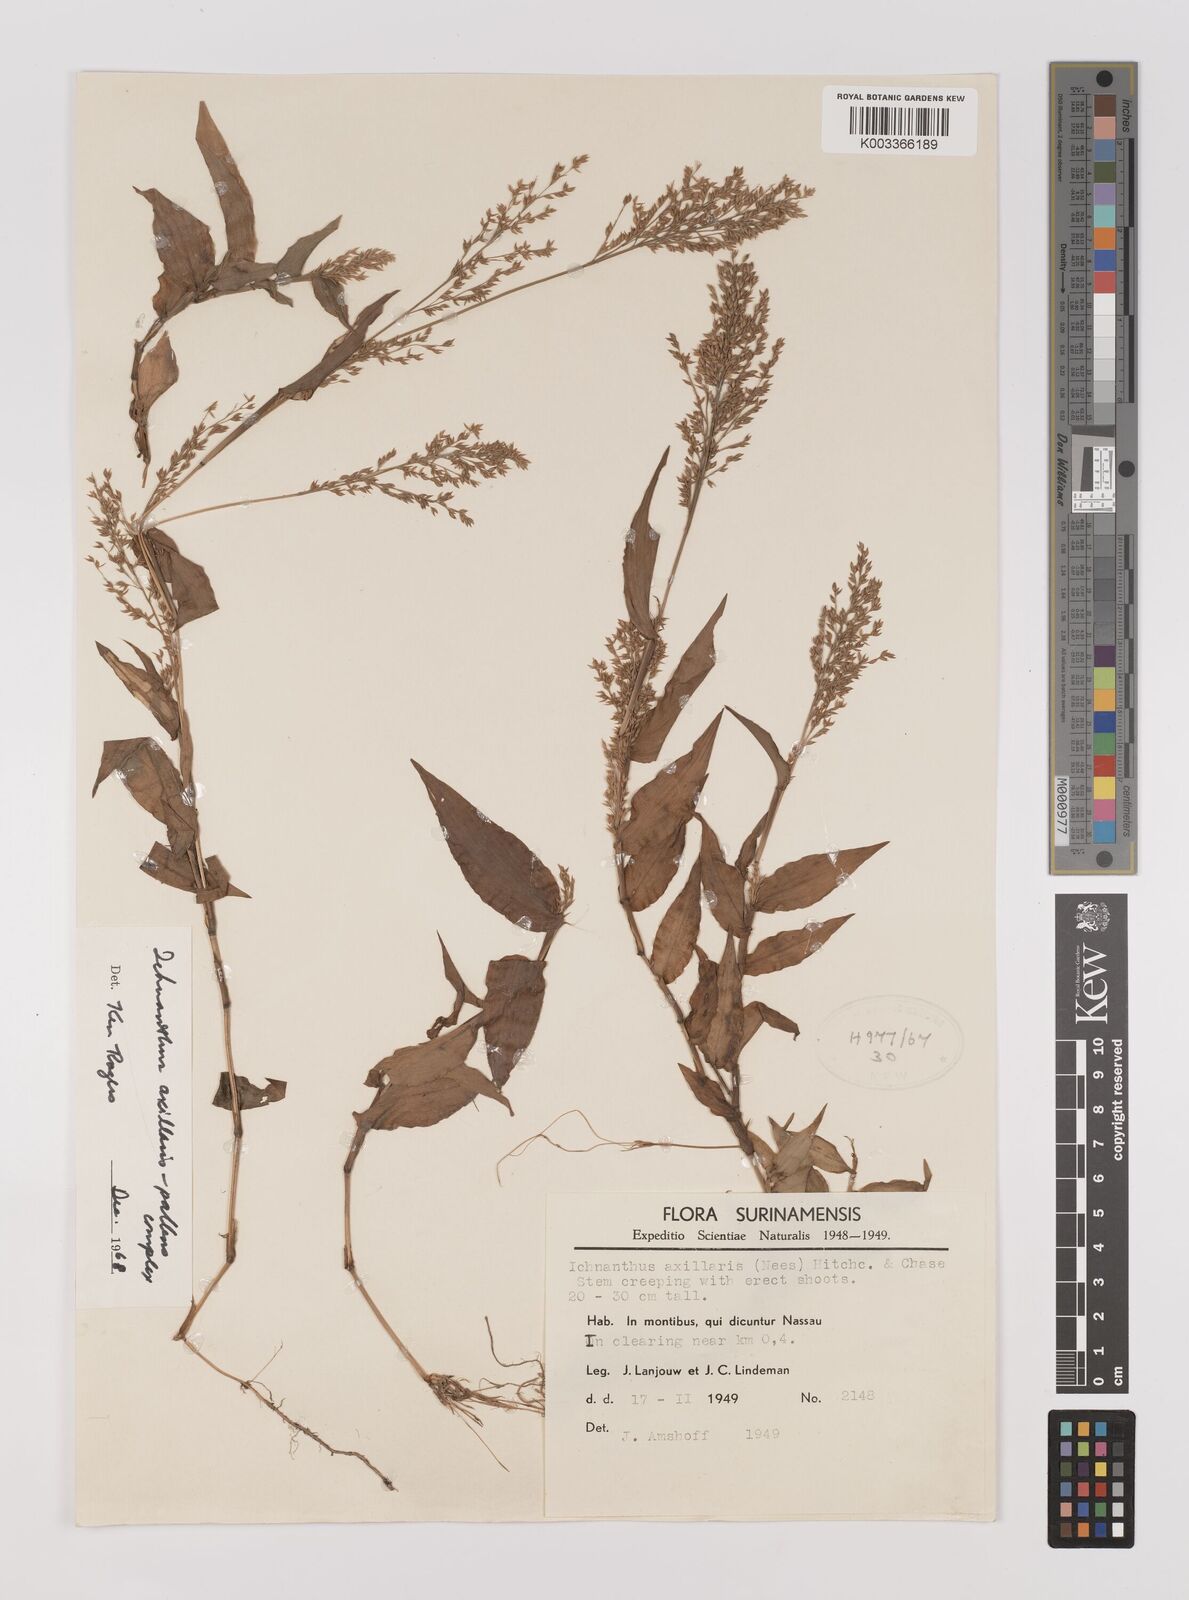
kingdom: Plantae
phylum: Tracheophyta
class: Liliopsida
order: Poales
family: Poaceae
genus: Ichnanthus
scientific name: Ichnanthus pallens
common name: Water grass
